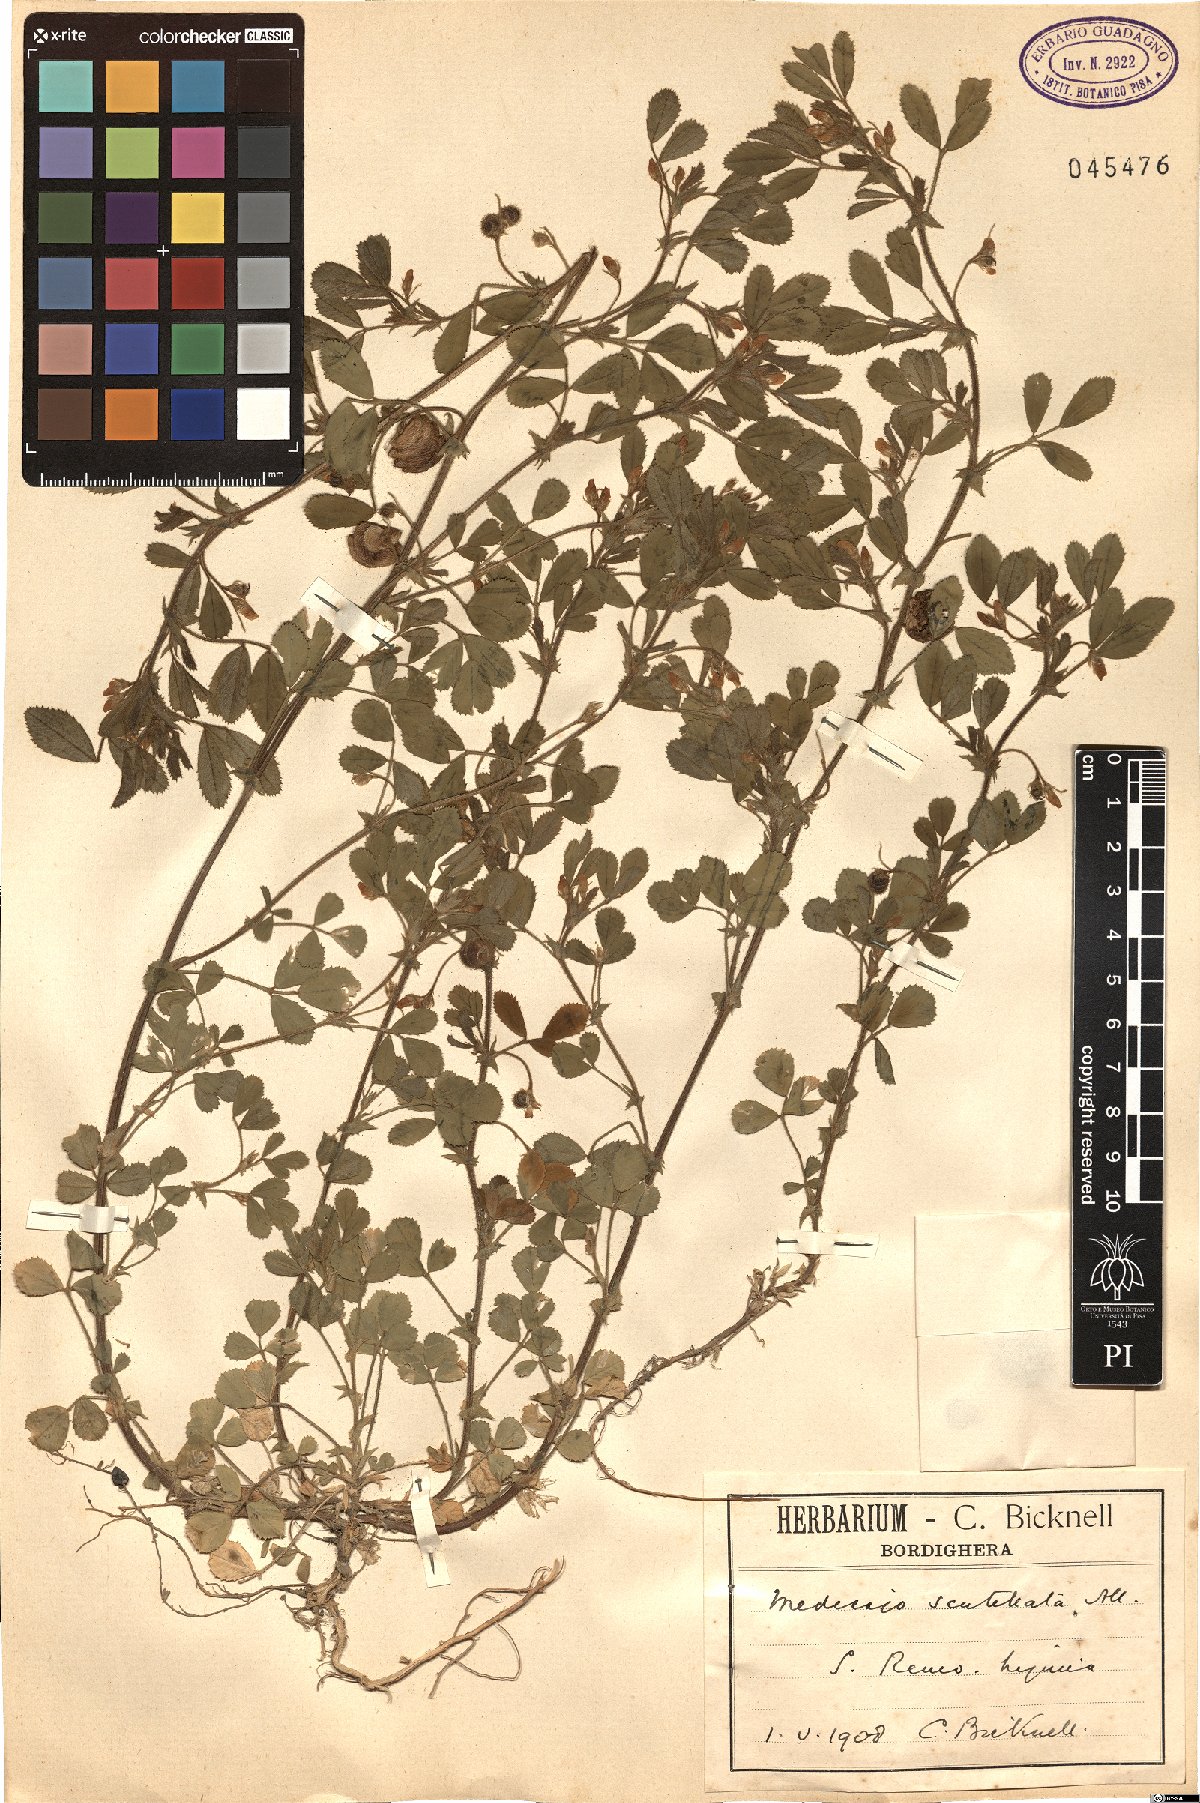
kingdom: Plantae
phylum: Tracheophyta
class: Magnoliopsida
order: Fabales
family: Fabaceae
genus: Medicago
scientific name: Medicago scutellata
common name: Snail medick
